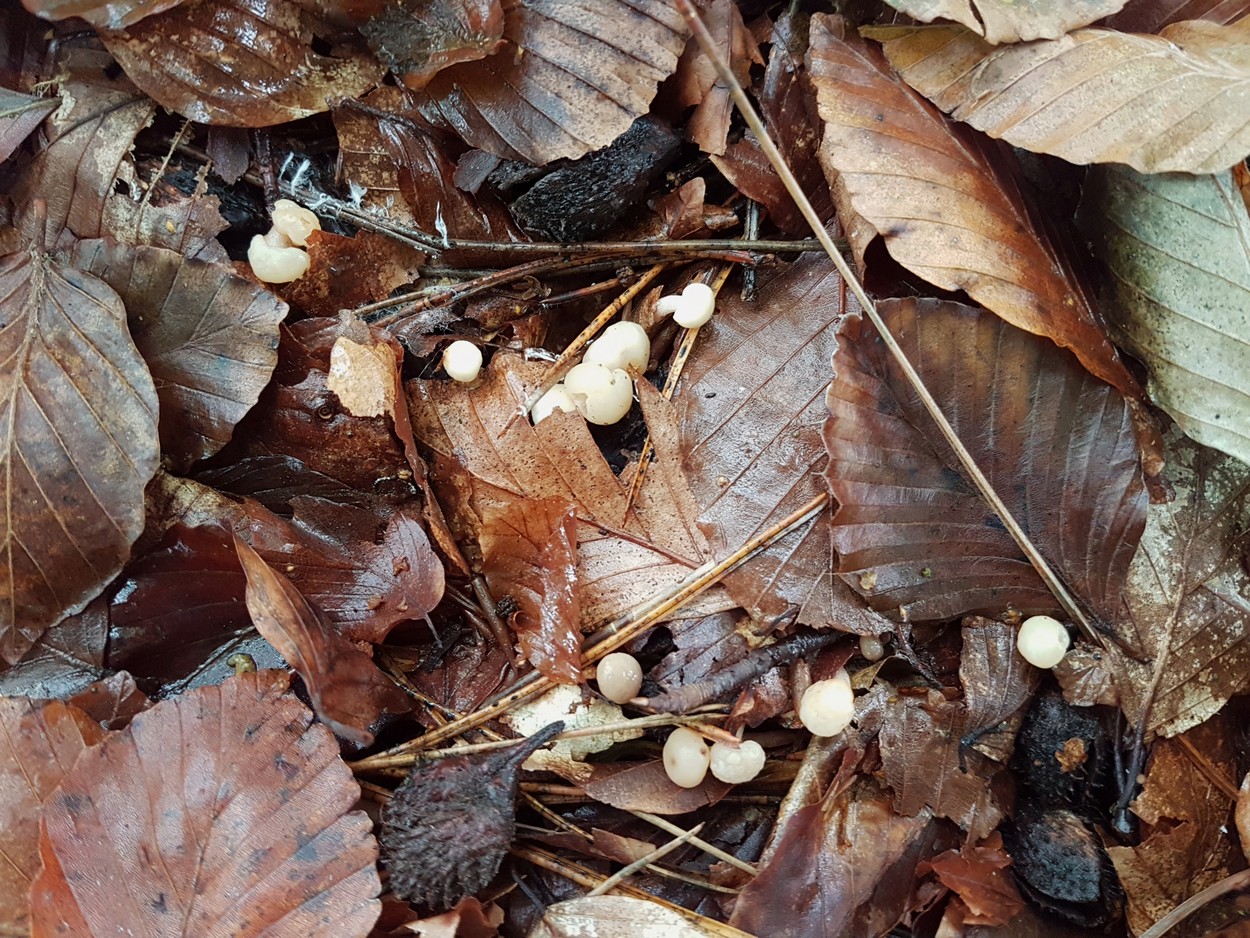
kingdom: Fungi
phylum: Ascomycota
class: Leotiomycetes
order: Rhytismatales
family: Cudoniaceae
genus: Cudonia
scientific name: Cudonia
